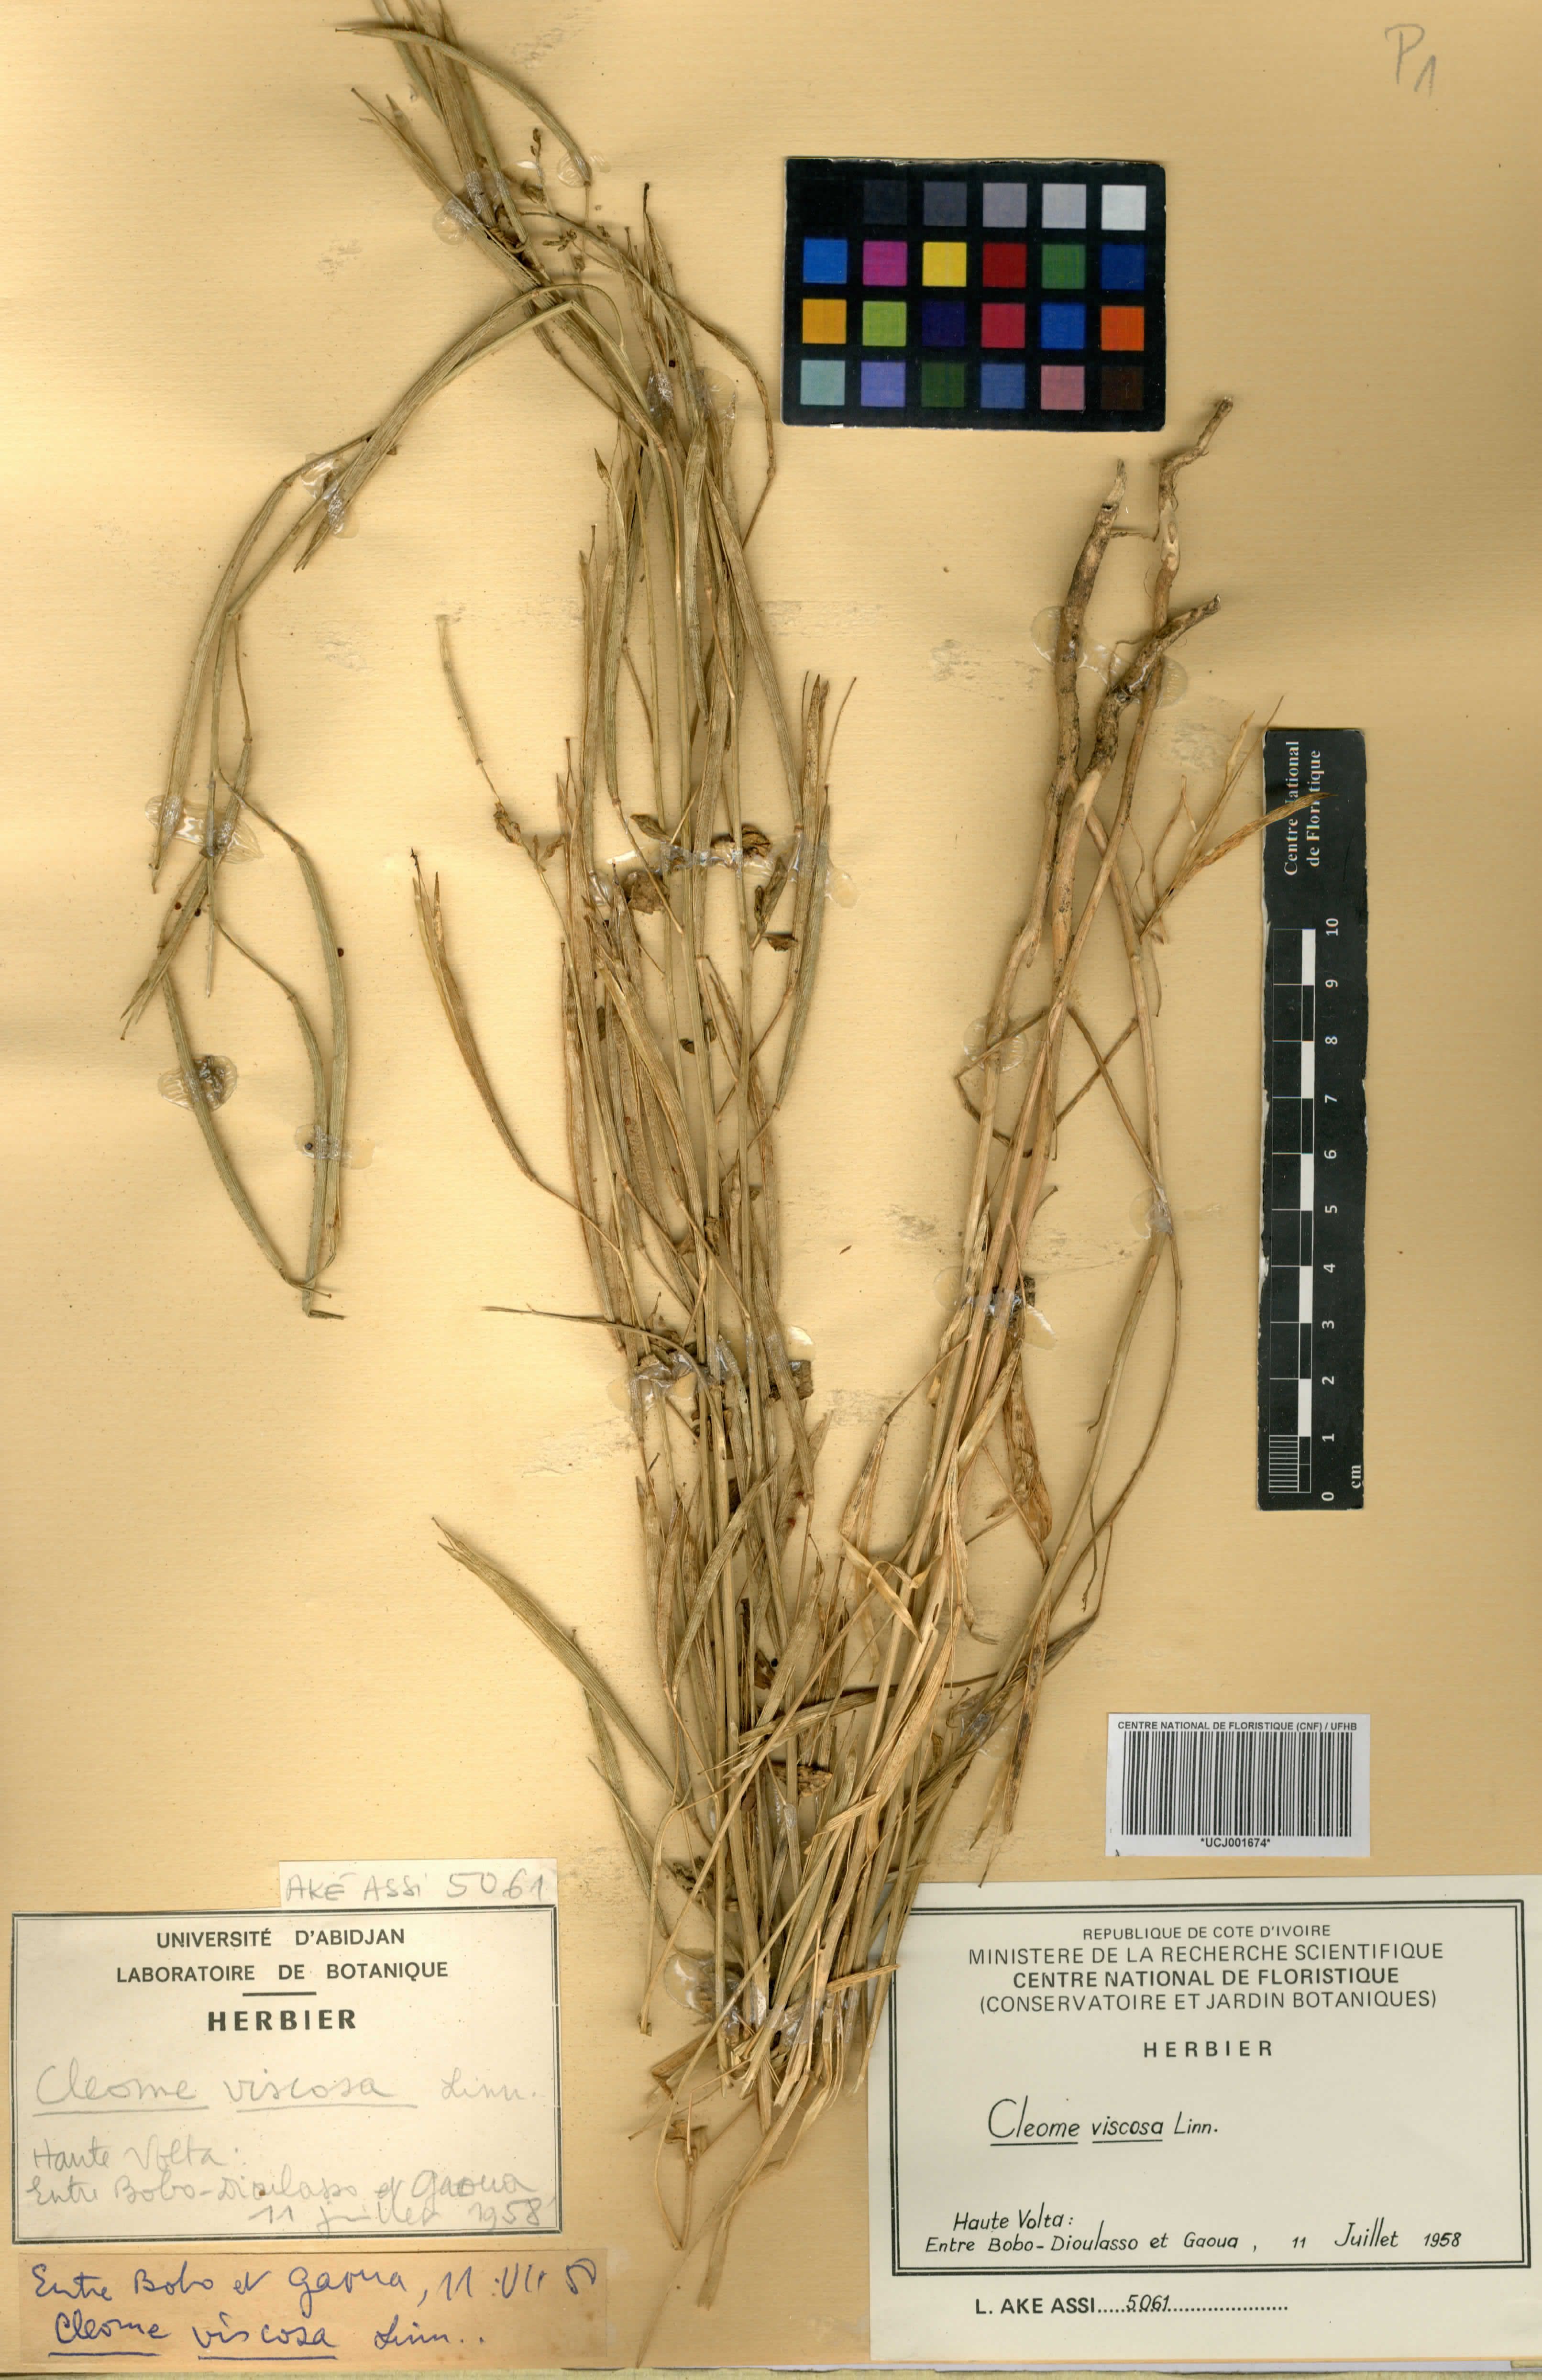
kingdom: Plantae
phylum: Tracheophyta
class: Magnoliopsida
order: Brassicales
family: Cleomaceae
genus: Arivela
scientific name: Arivela viscosa
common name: Asian spiderflower
